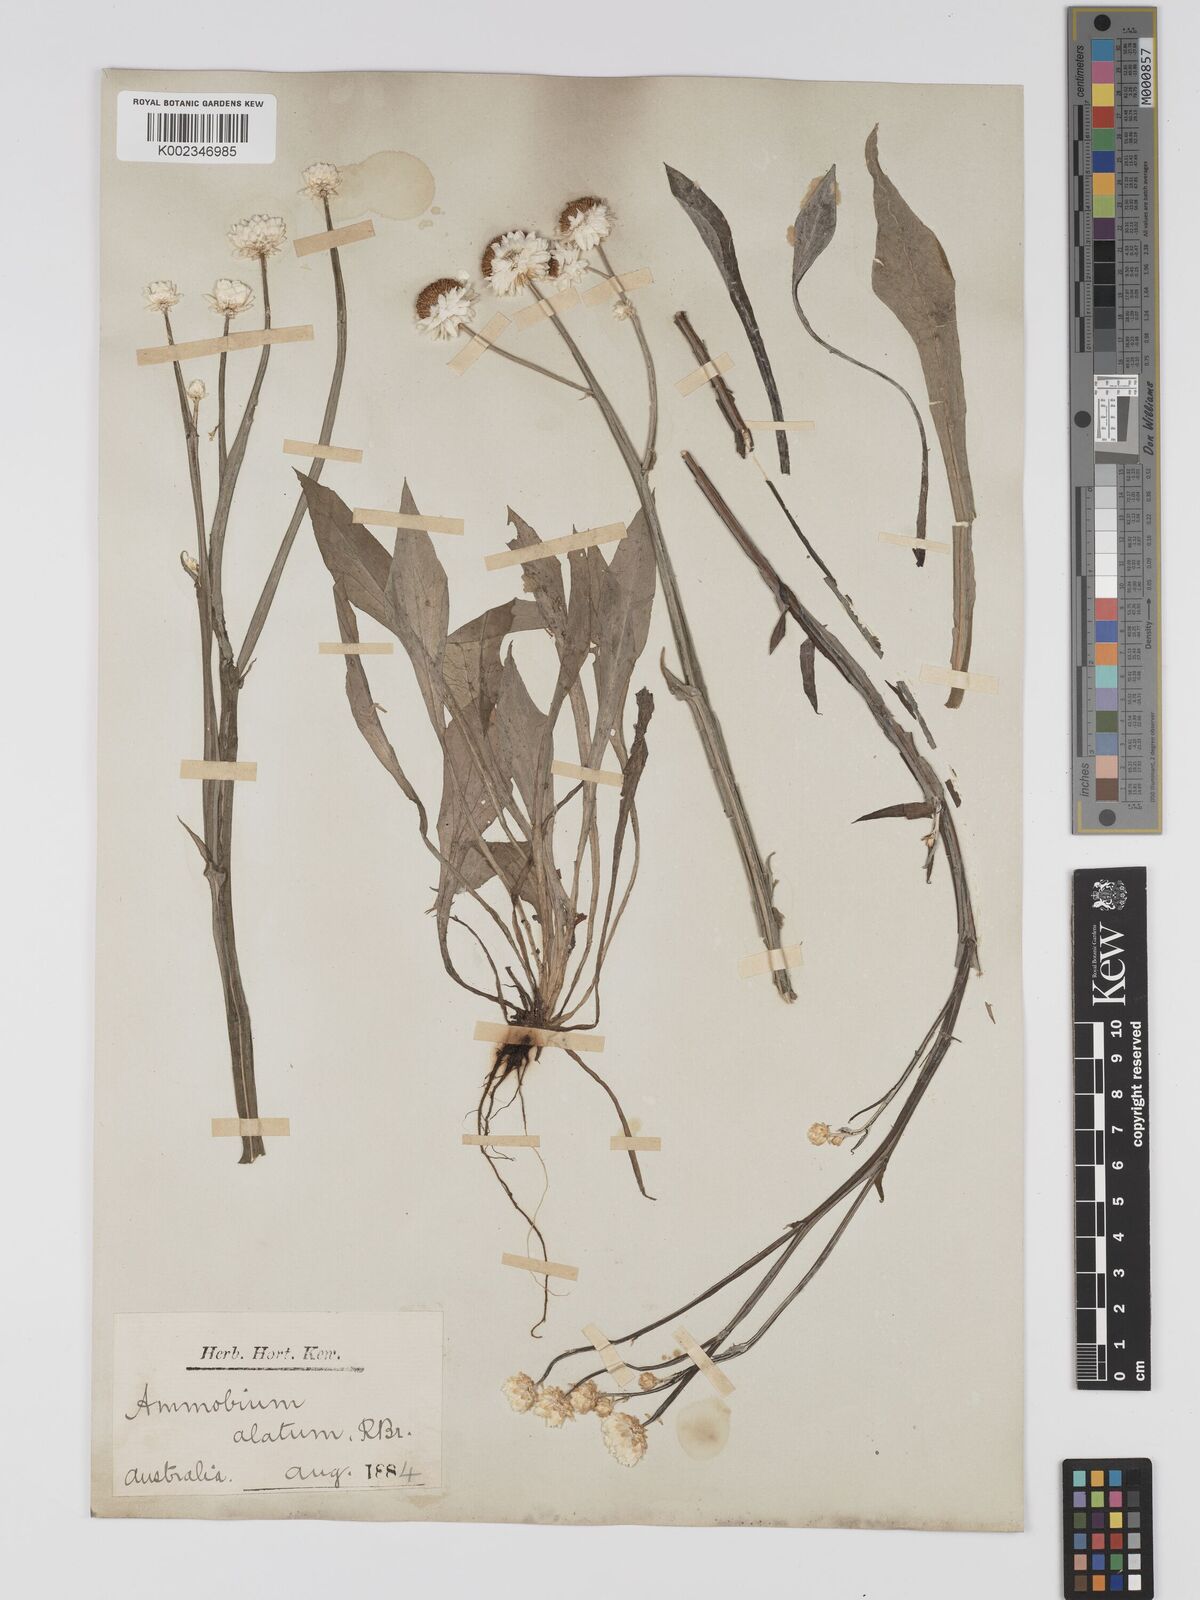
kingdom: Plantae
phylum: Tracheophyta
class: Magnoliopsida
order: Asterales
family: Asteraceae
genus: Ammobium
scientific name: Ammobium alatum
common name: Winged everlasting
